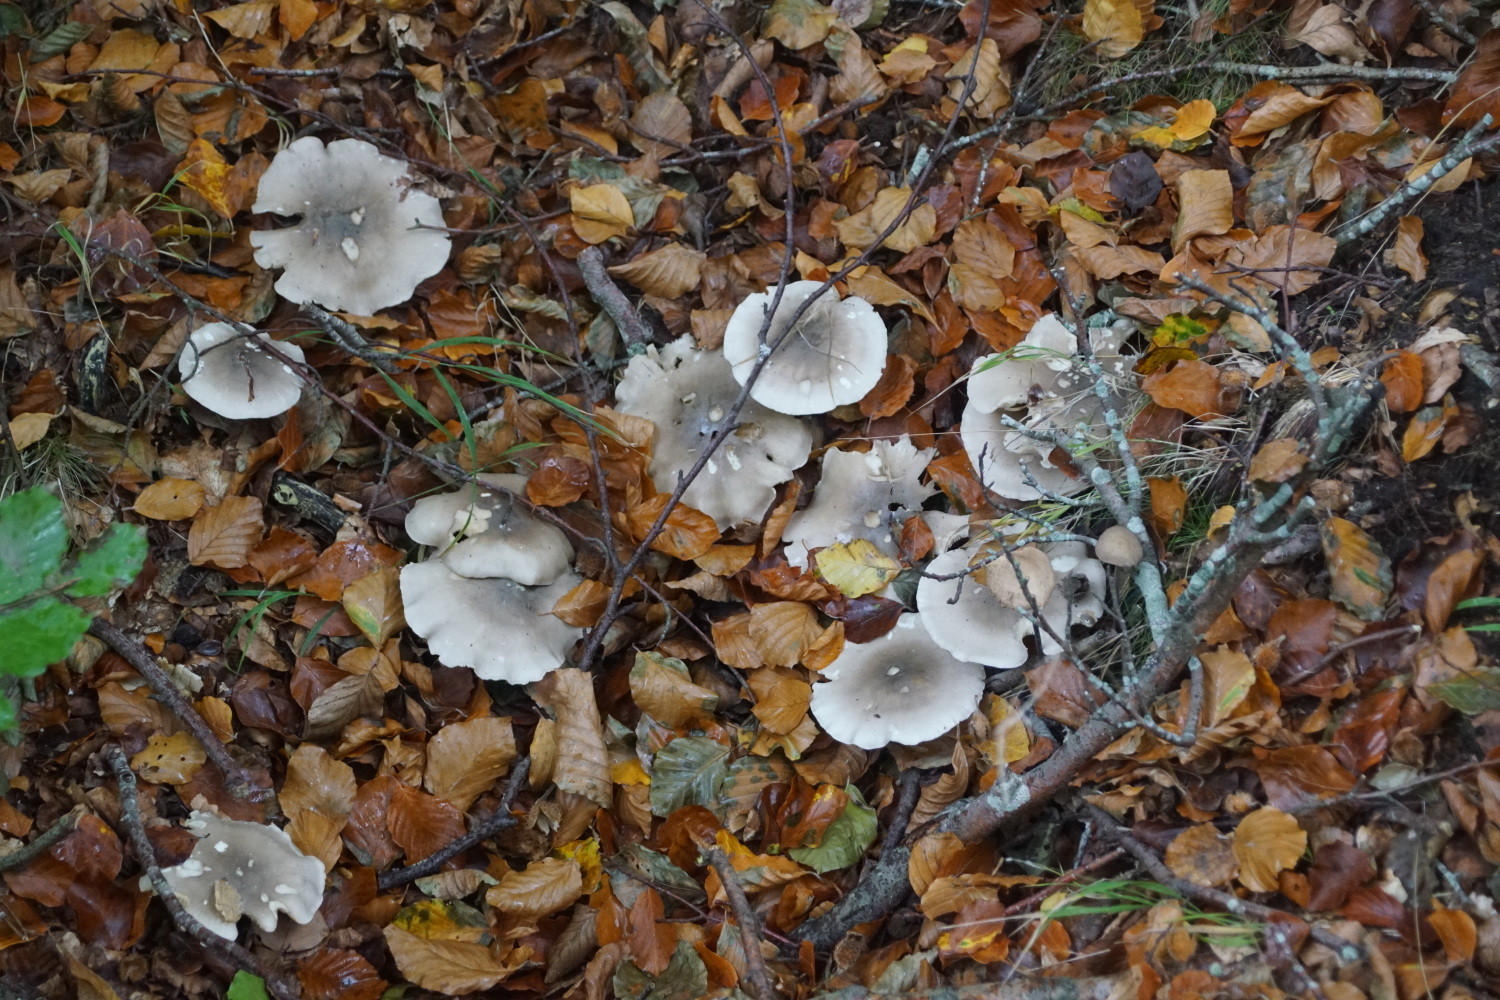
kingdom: Fungi
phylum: Basidiomycota
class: Agaricomycetes
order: Agaricales
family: Tricholomataceae
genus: Clitocybe
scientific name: Clitocybe nebularis
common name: tåge-tragthat
